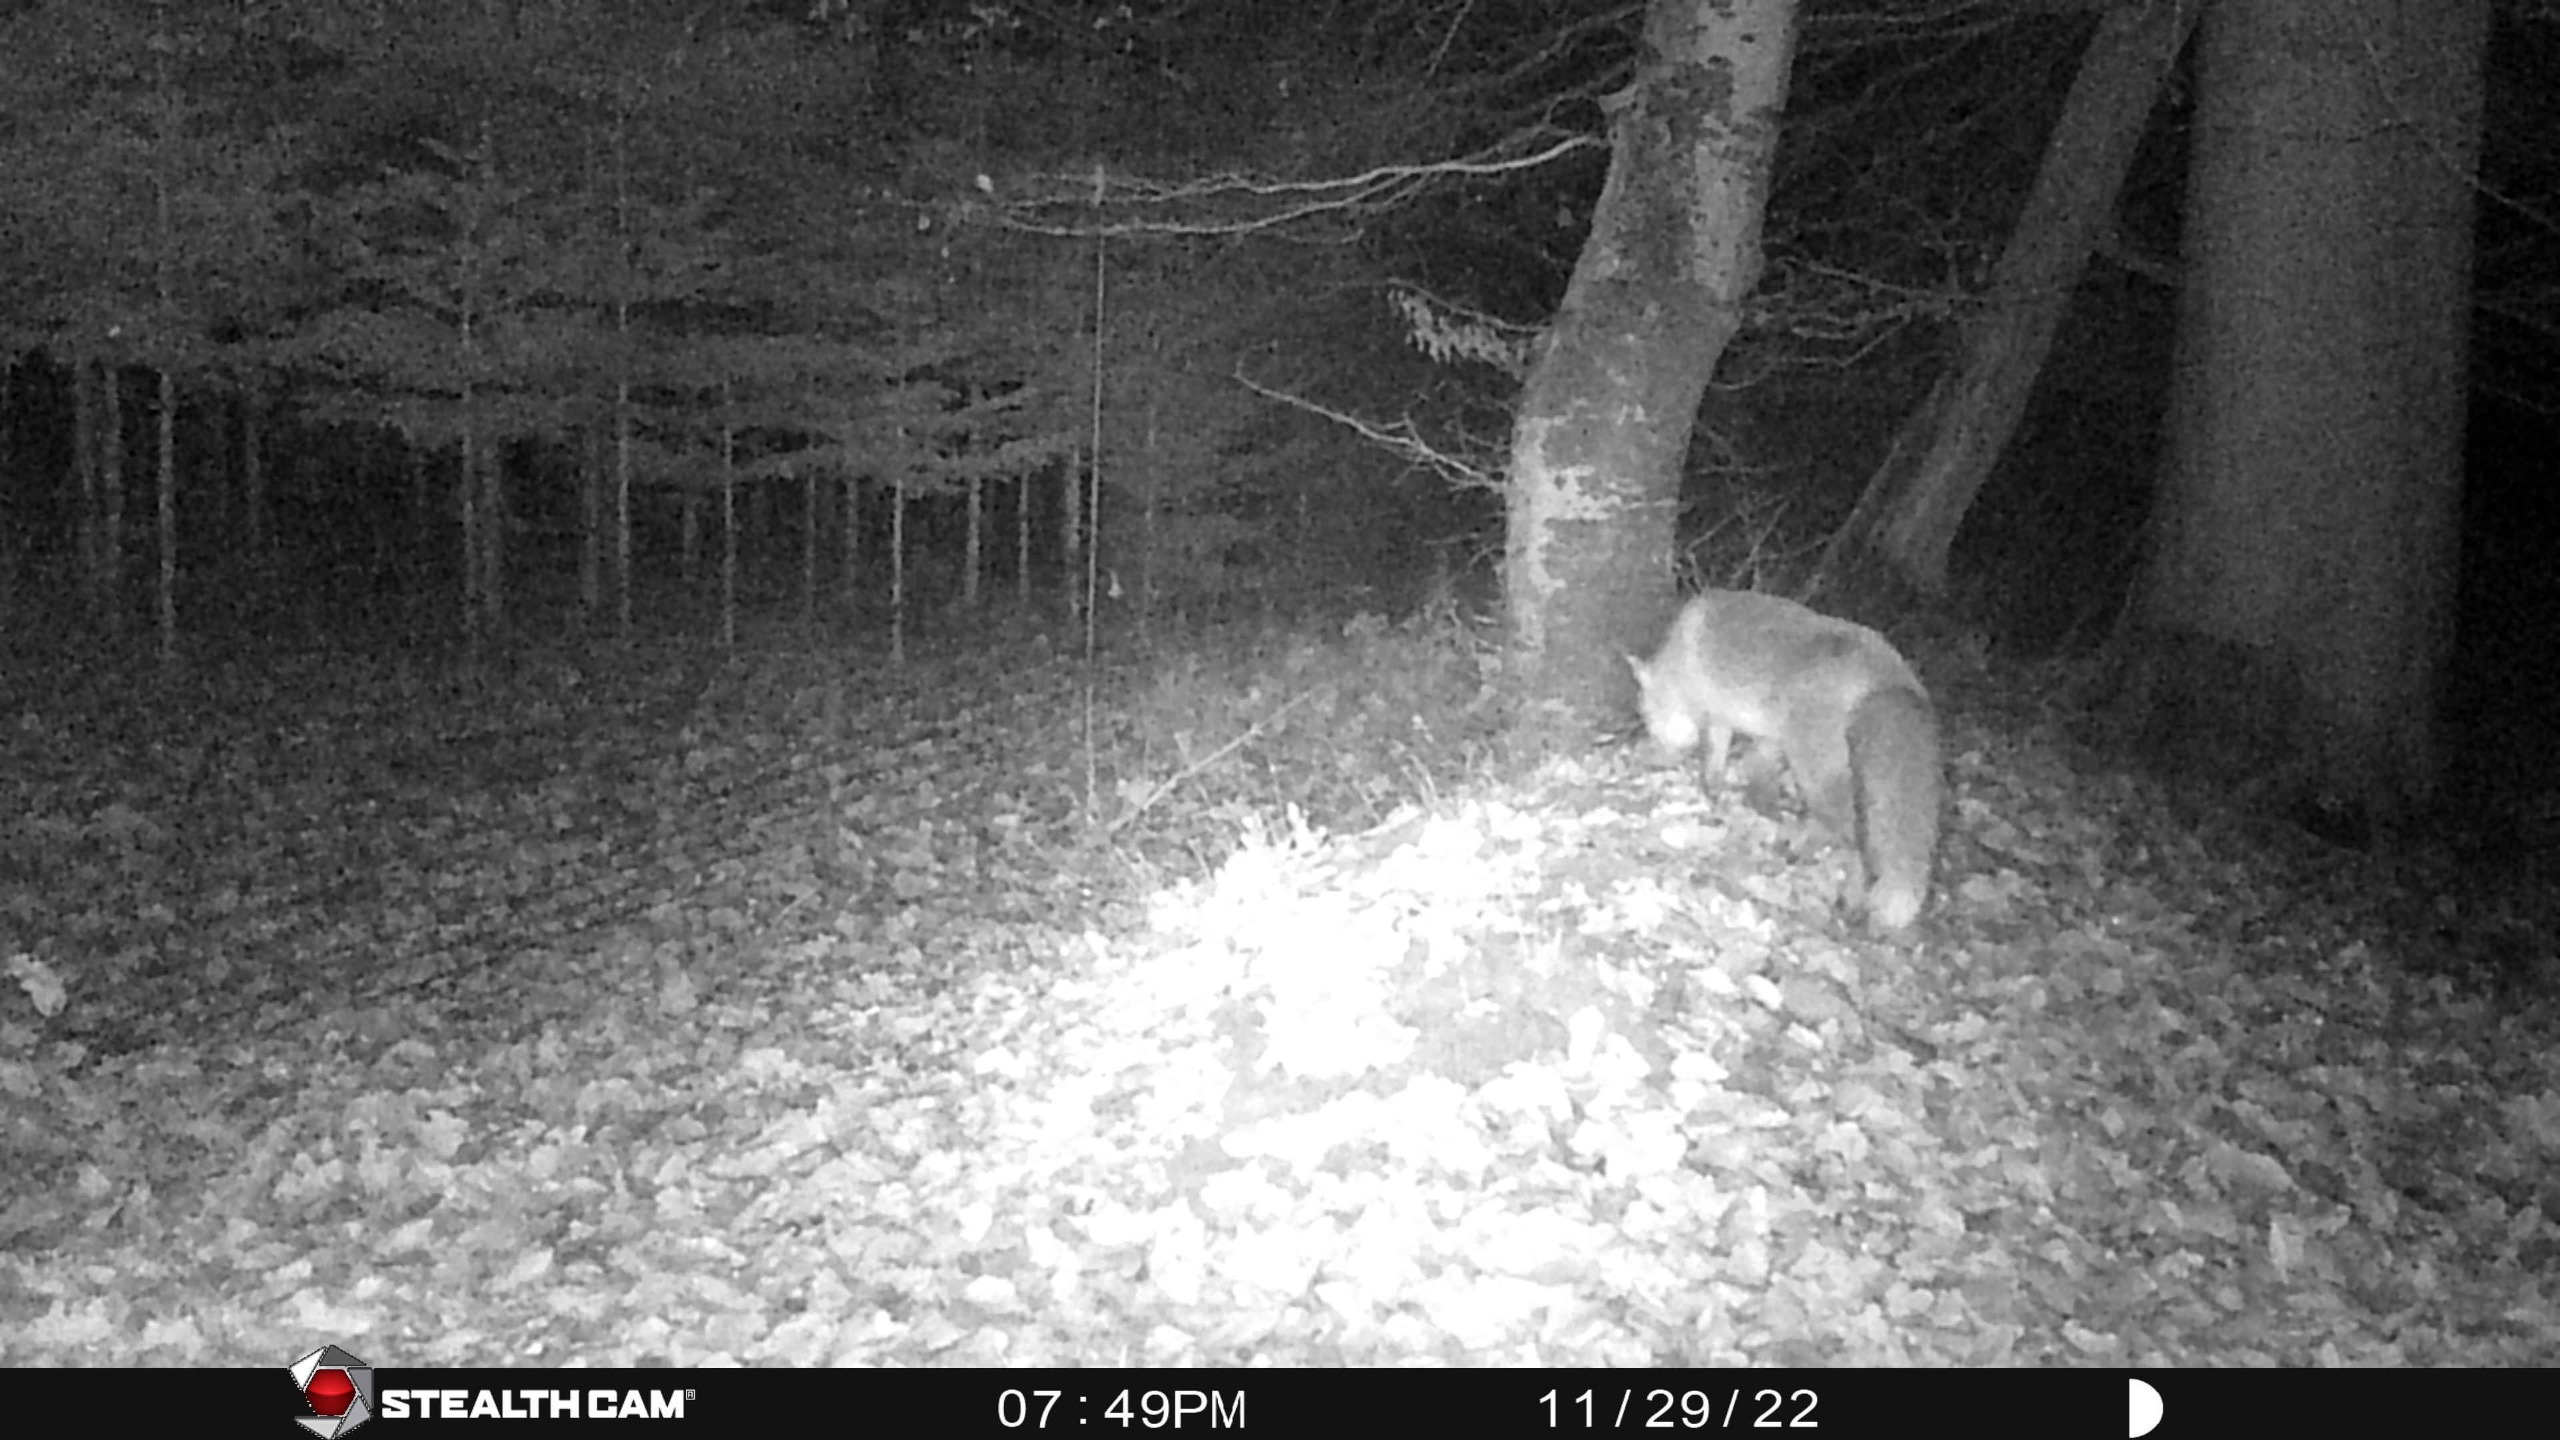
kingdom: Animalia
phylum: Chordata
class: Mammalia
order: Carnivora
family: Canidae
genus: Vulpes
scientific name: Vulpes vulpes
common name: Ræv
